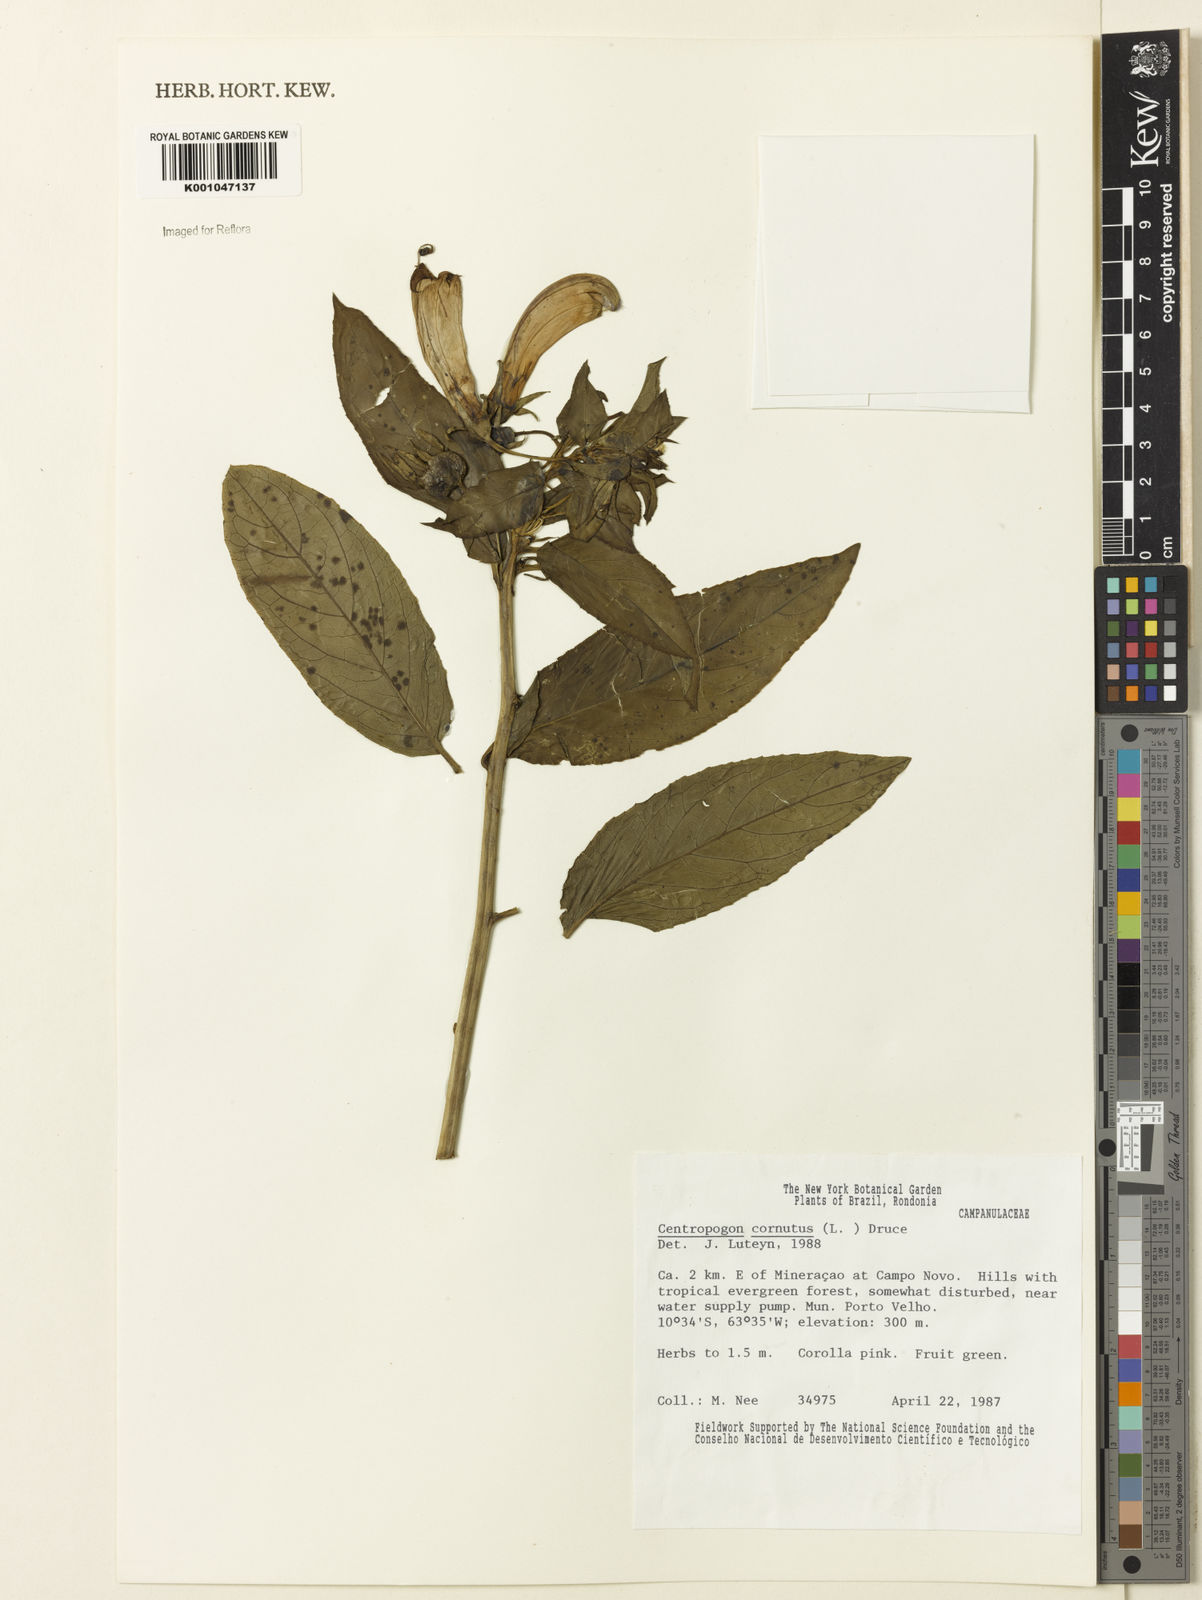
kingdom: Plantae
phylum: Tracheophyta
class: Magnoliopsida
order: Asterales
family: Campanulaceae
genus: Centropogon
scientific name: Centropogon cornutus
